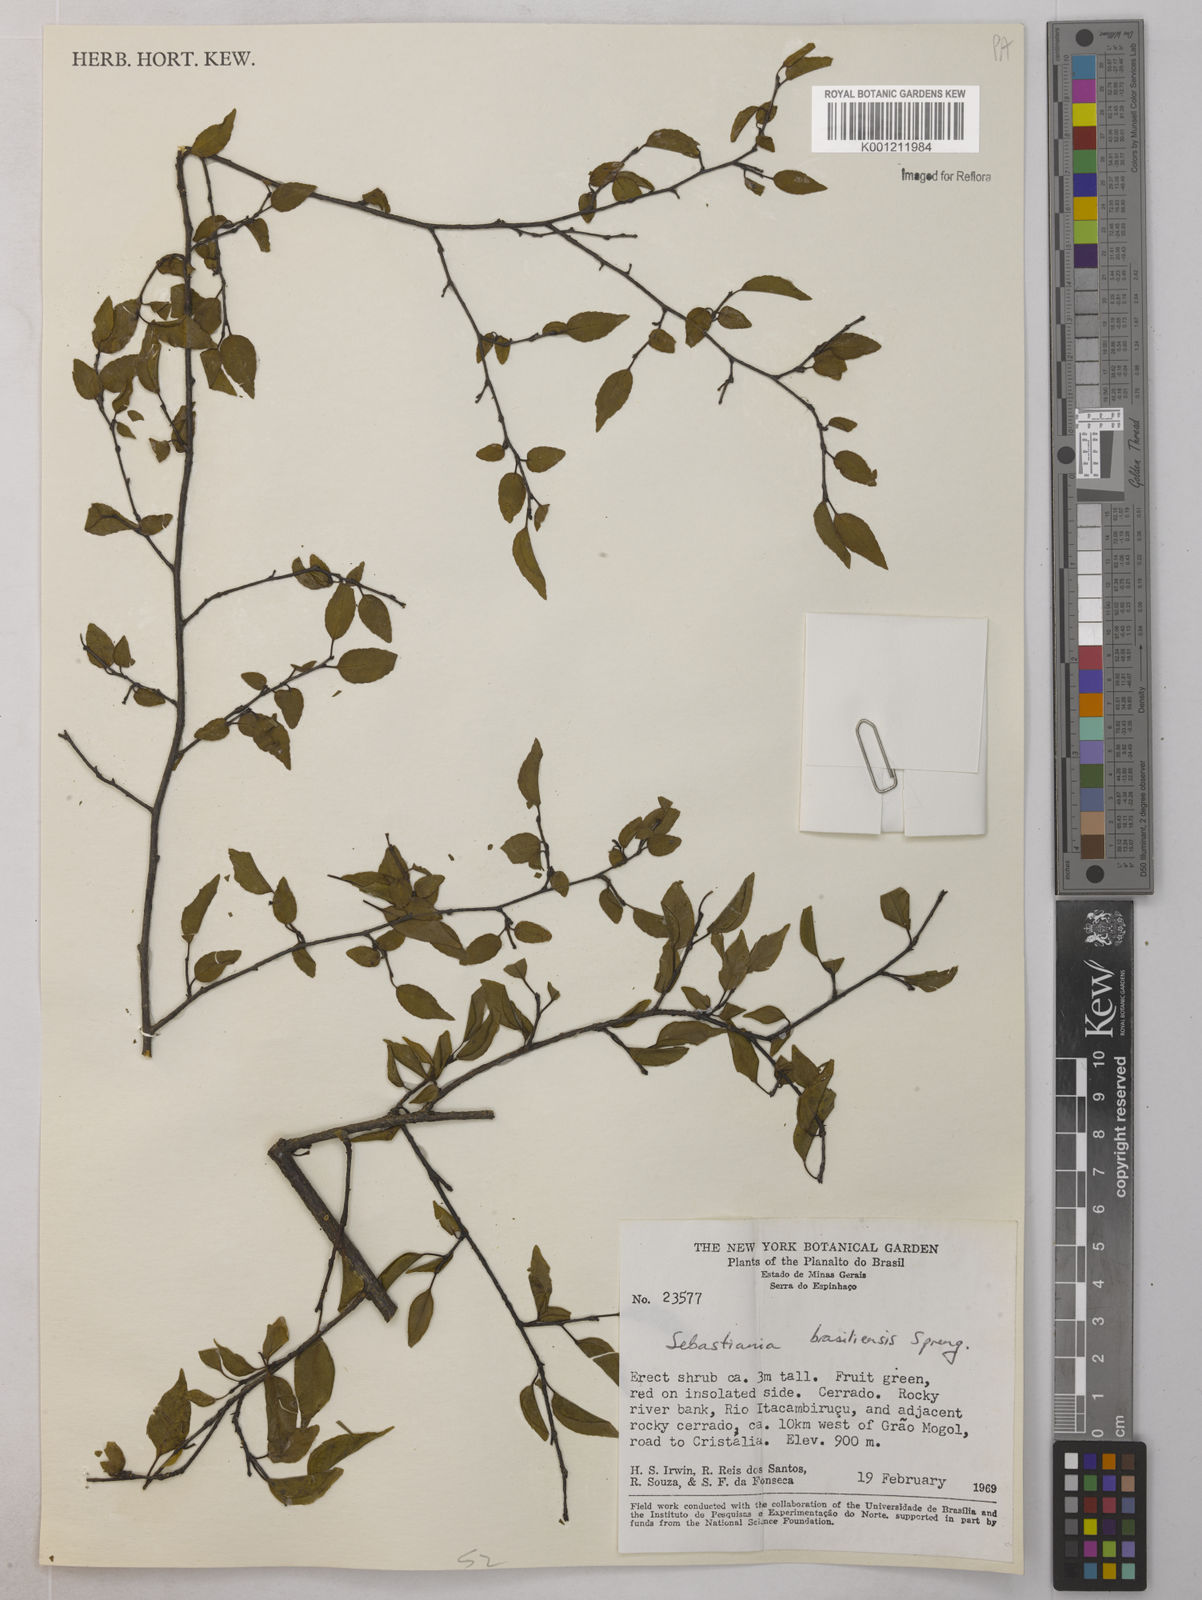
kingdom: Plantae
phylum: Tracheophyta
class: Magnoliopsida
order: Malpighiales
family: Euphorbiaceae
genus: Sebastiania
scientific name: Sebastiania brasiliensis
